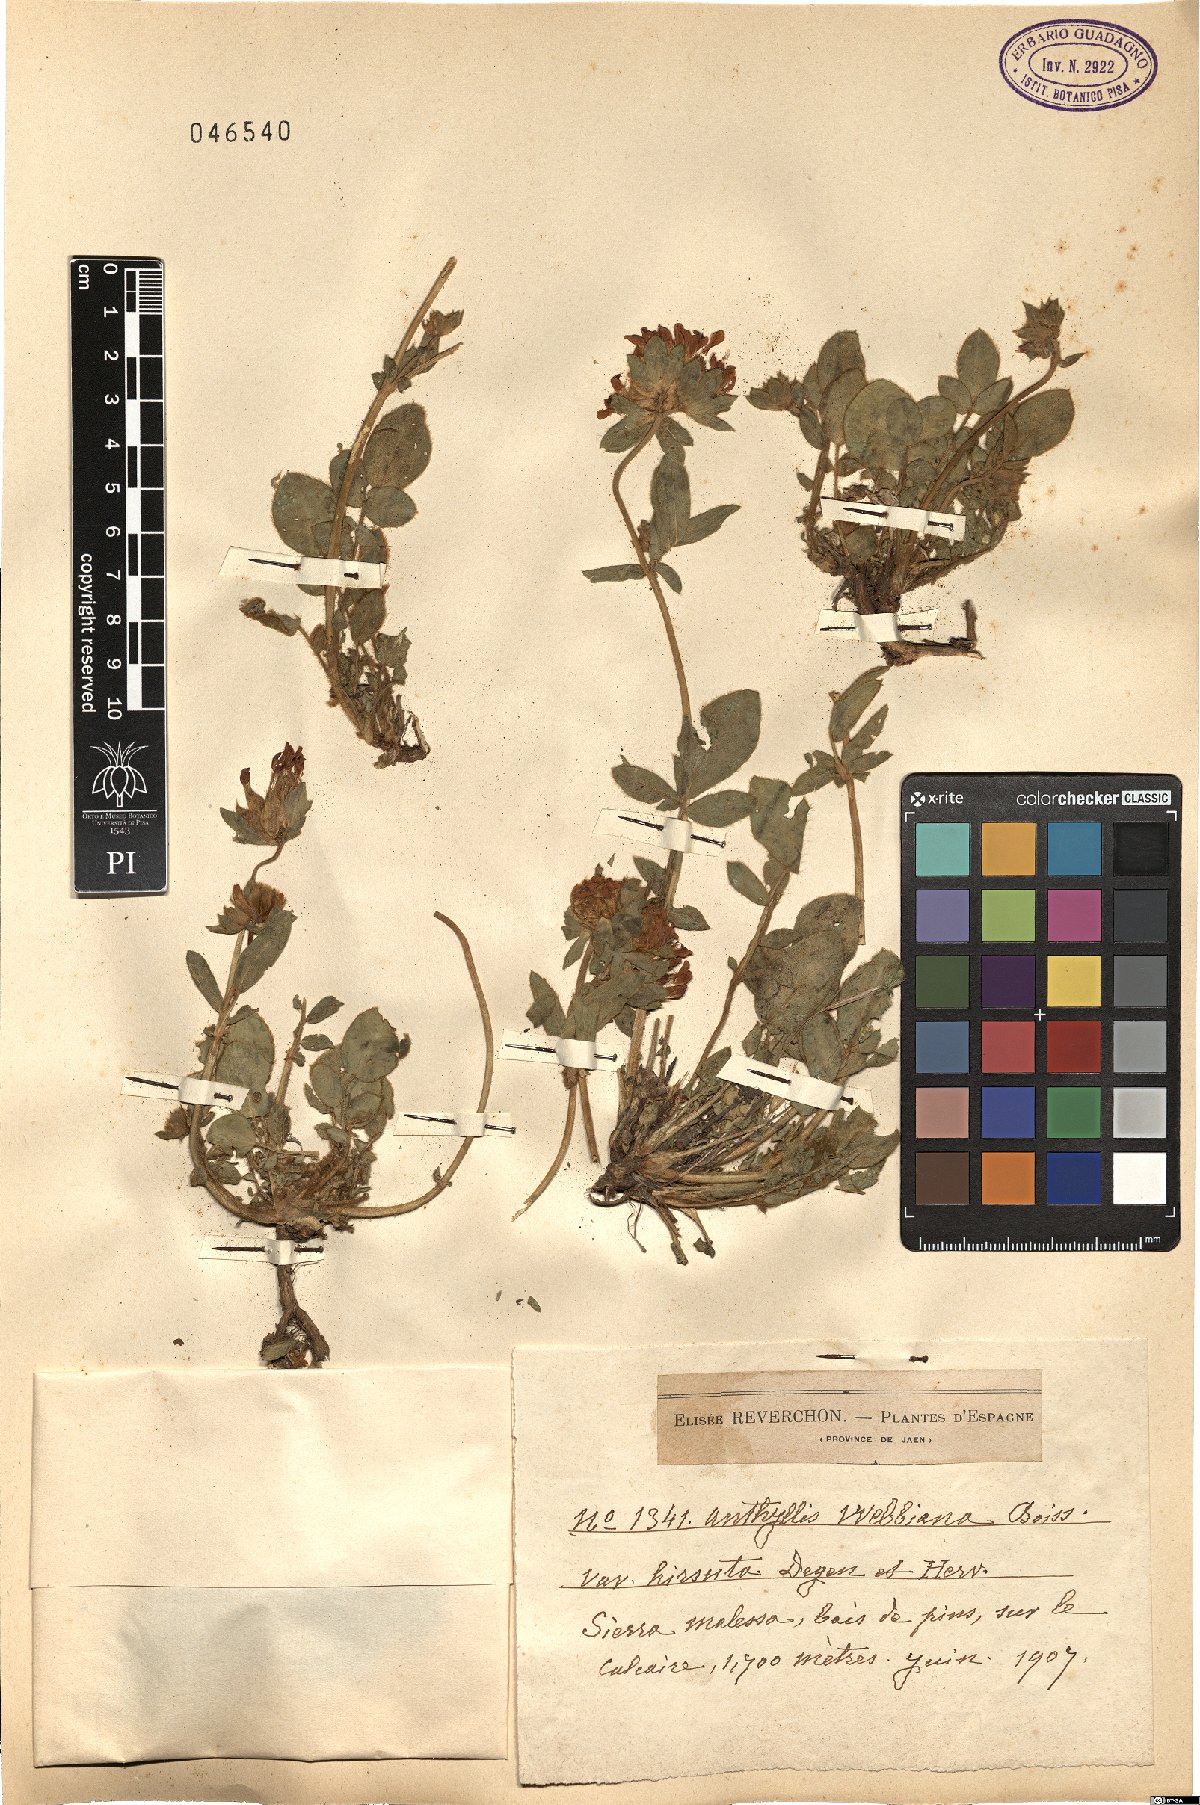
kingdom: Plantae
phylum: Tracheophyta
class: Magnoliopsida
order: Fabales
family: Fabaceae
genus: Anthyllis
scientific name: Anthyllis vulneraria
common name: Kidney vetch
